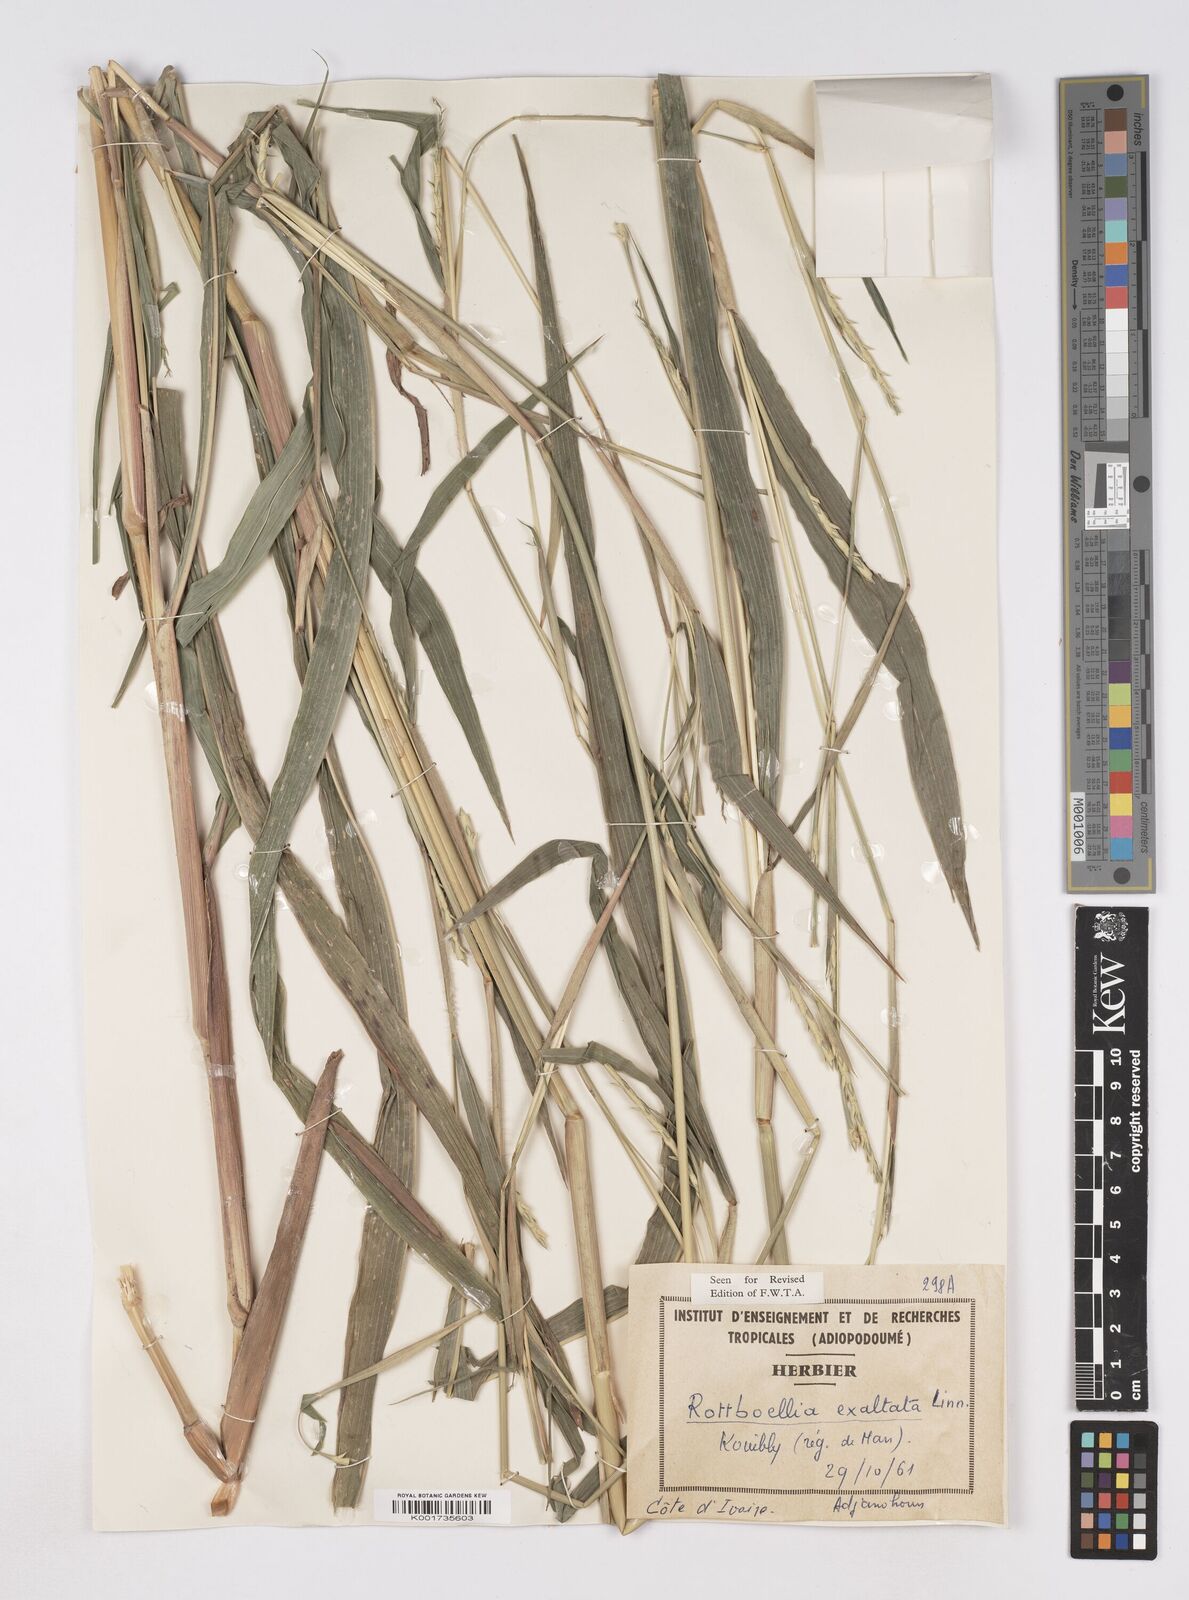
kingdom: Plantae
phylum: Tracheophyta
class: Liliopsida
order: Poales
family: Poaceae
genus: Ophiuros
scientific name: Ophiuros exaltatus
